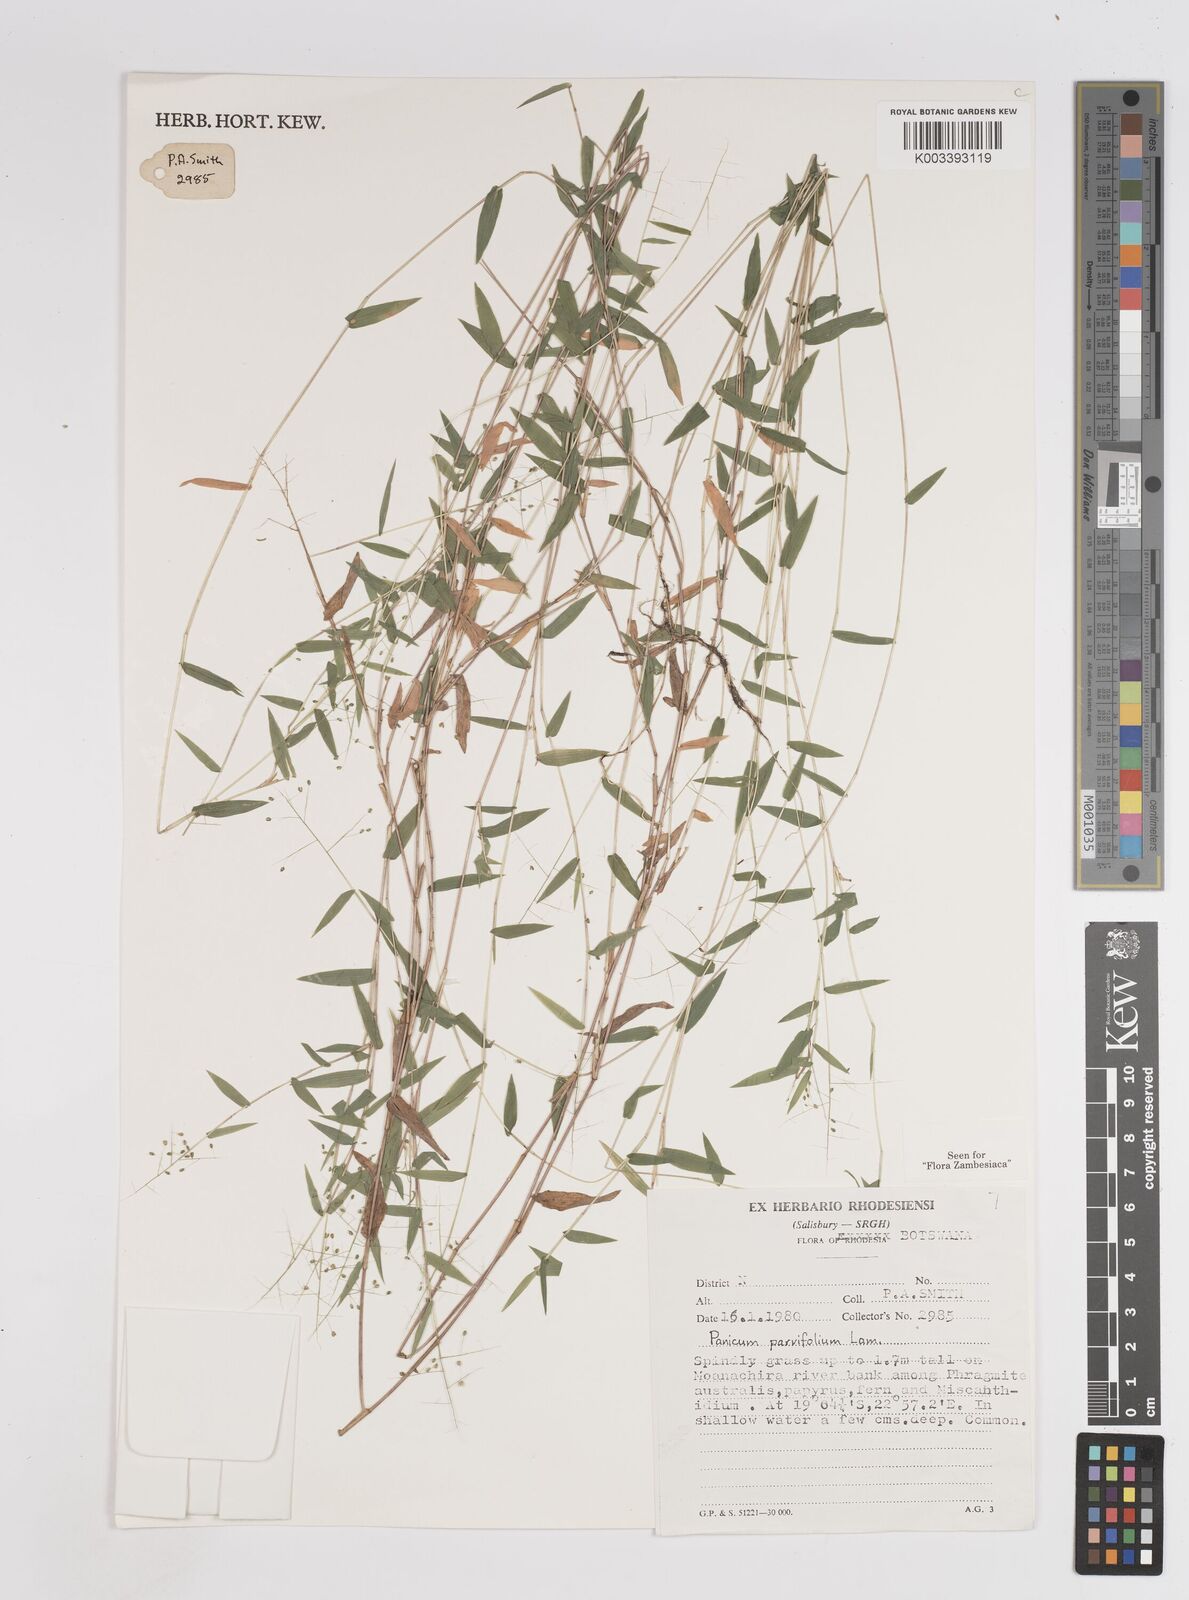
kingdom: Plantae
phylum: Tracheophyta
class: Liliopsida
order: Poales
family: Poaceae
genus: Trichanthecium
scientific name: Trichanthecium parvifolium
